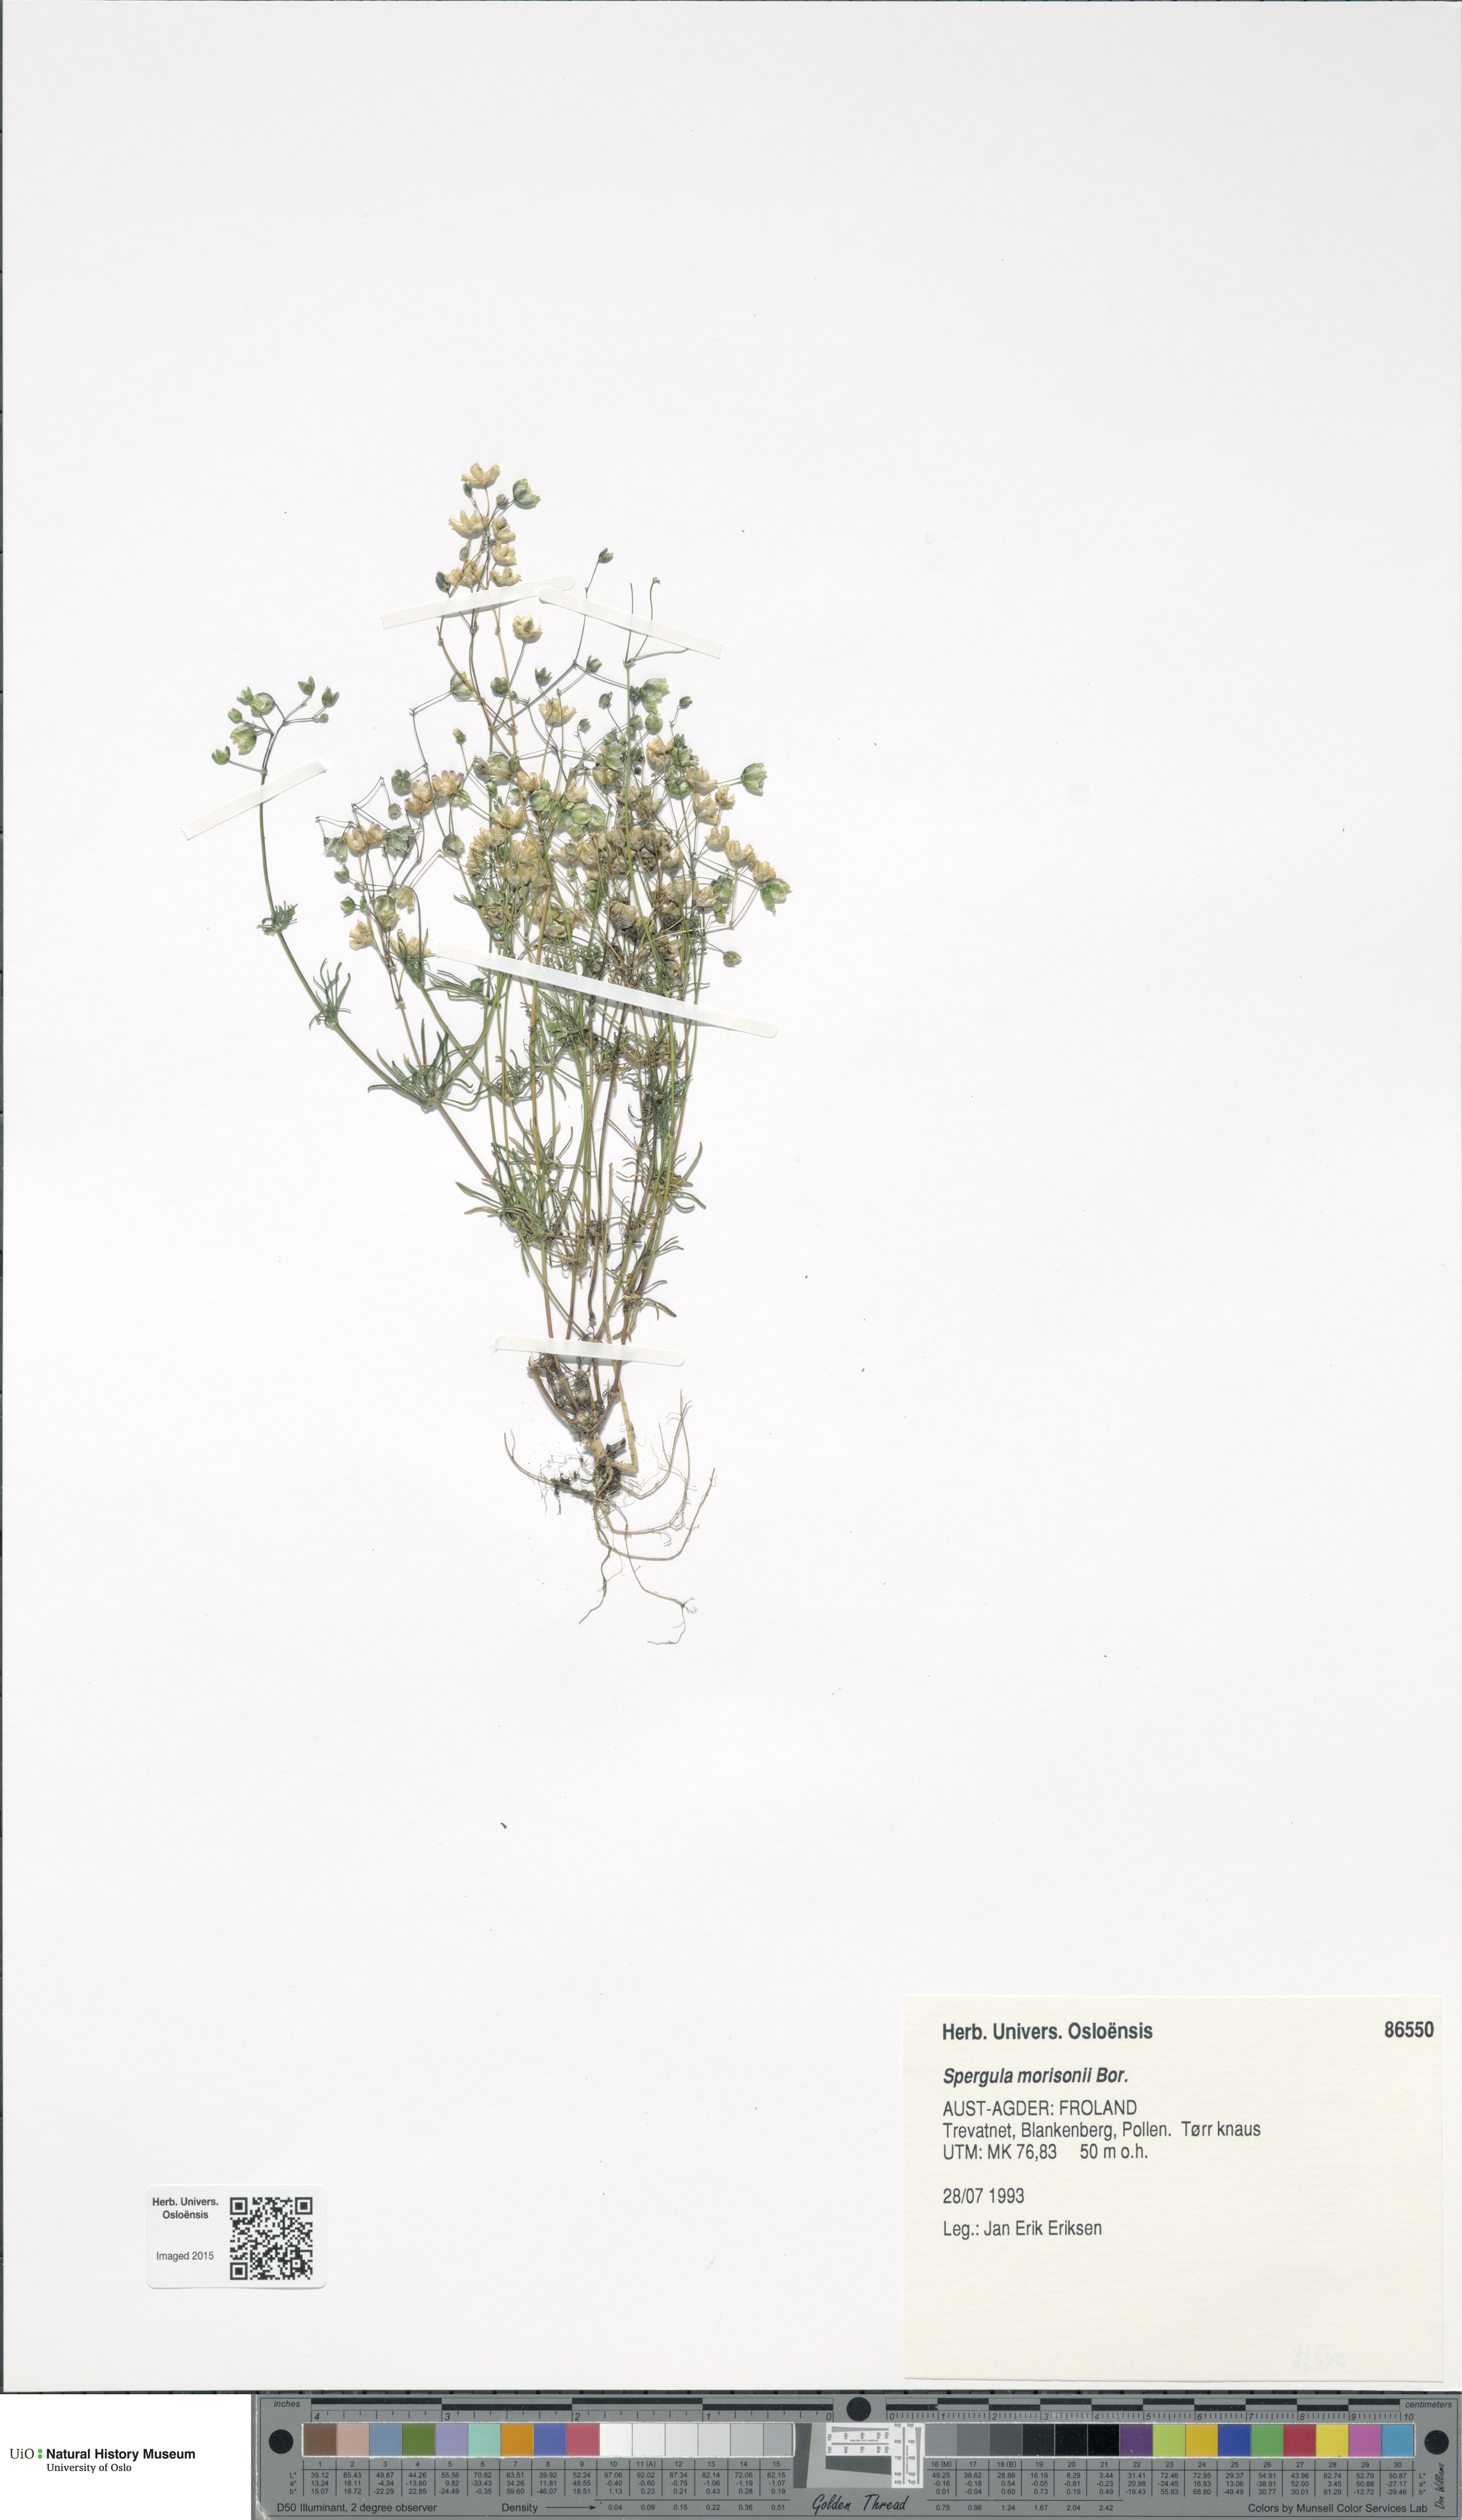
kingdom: Plantae
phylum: Tracheophyta
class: Magnoliopsida
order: Caryophyllales
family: Caryophyllaceae
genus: Spergula
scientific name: Spergula morisonii
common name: Pearlwort spurrey
